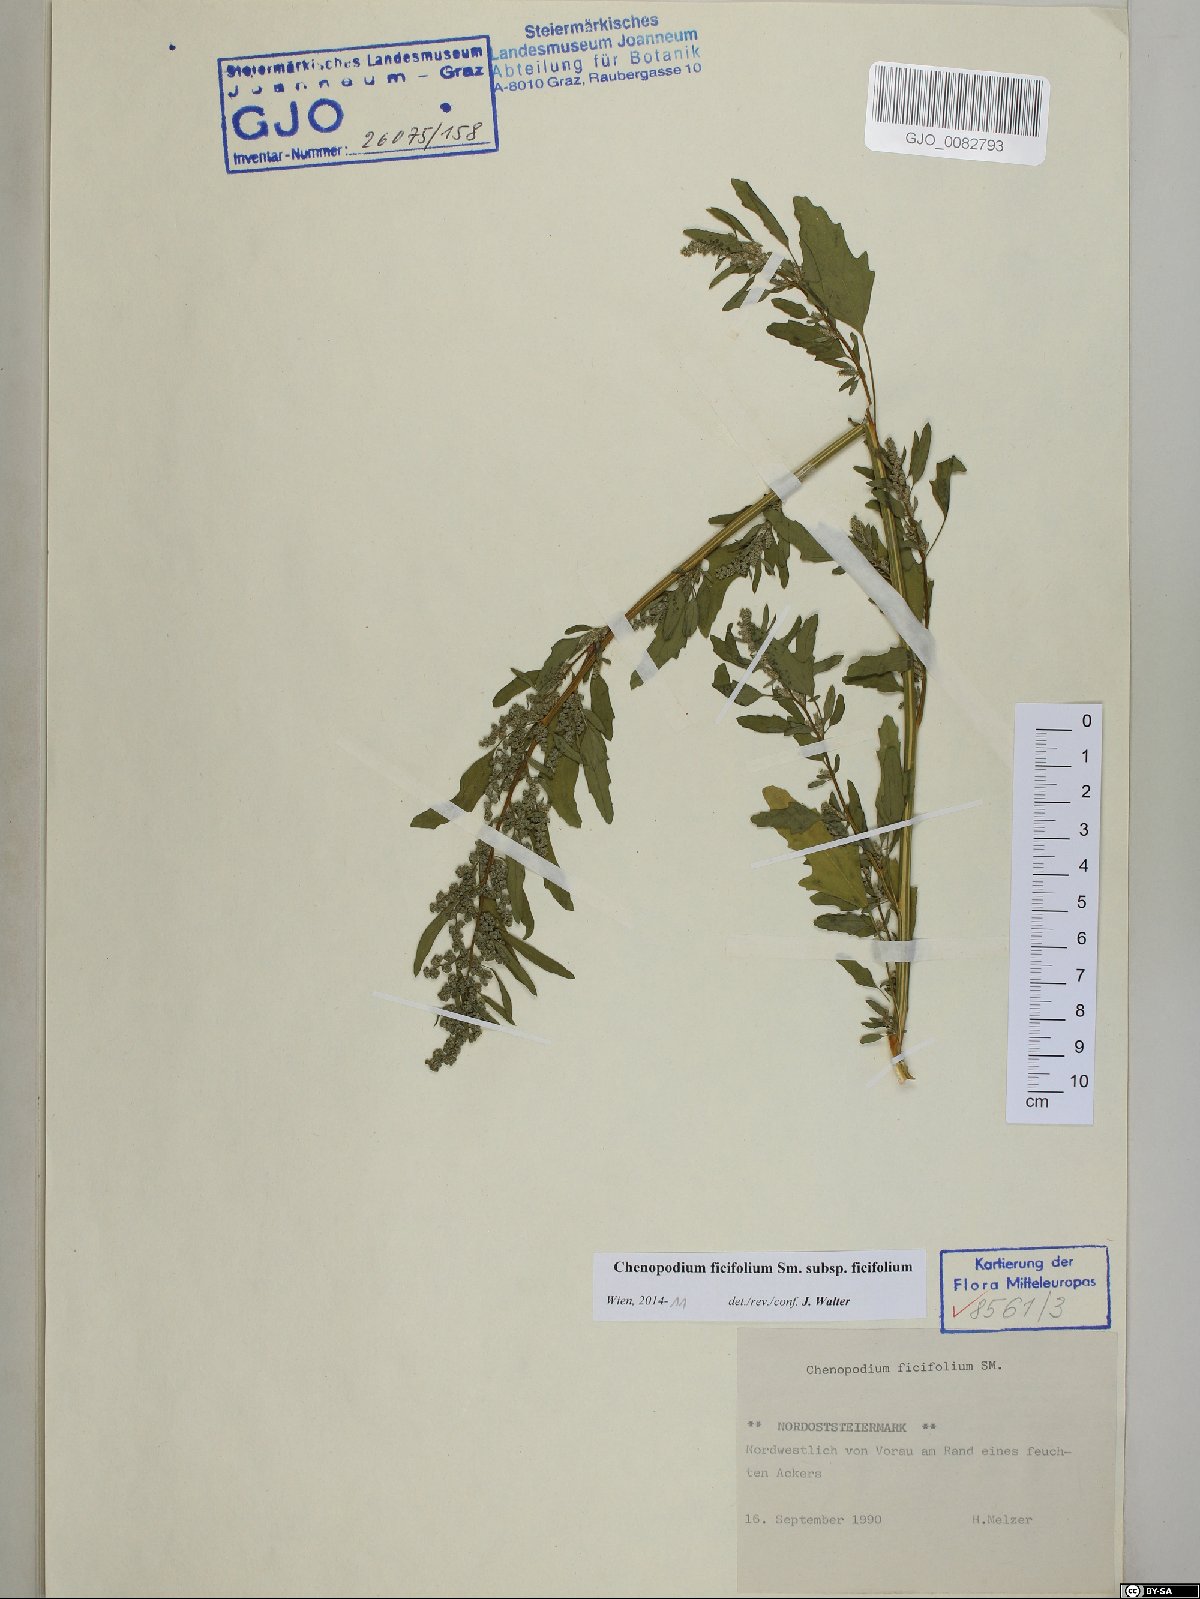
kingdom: Plantae
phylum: Tracheophyta
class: Magnoliopsida
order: Caryophyllales
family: Amaranthaceae
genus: Chenopodium
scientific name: Chenopodium ficifolium
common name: Fig-leaved goosefoot
